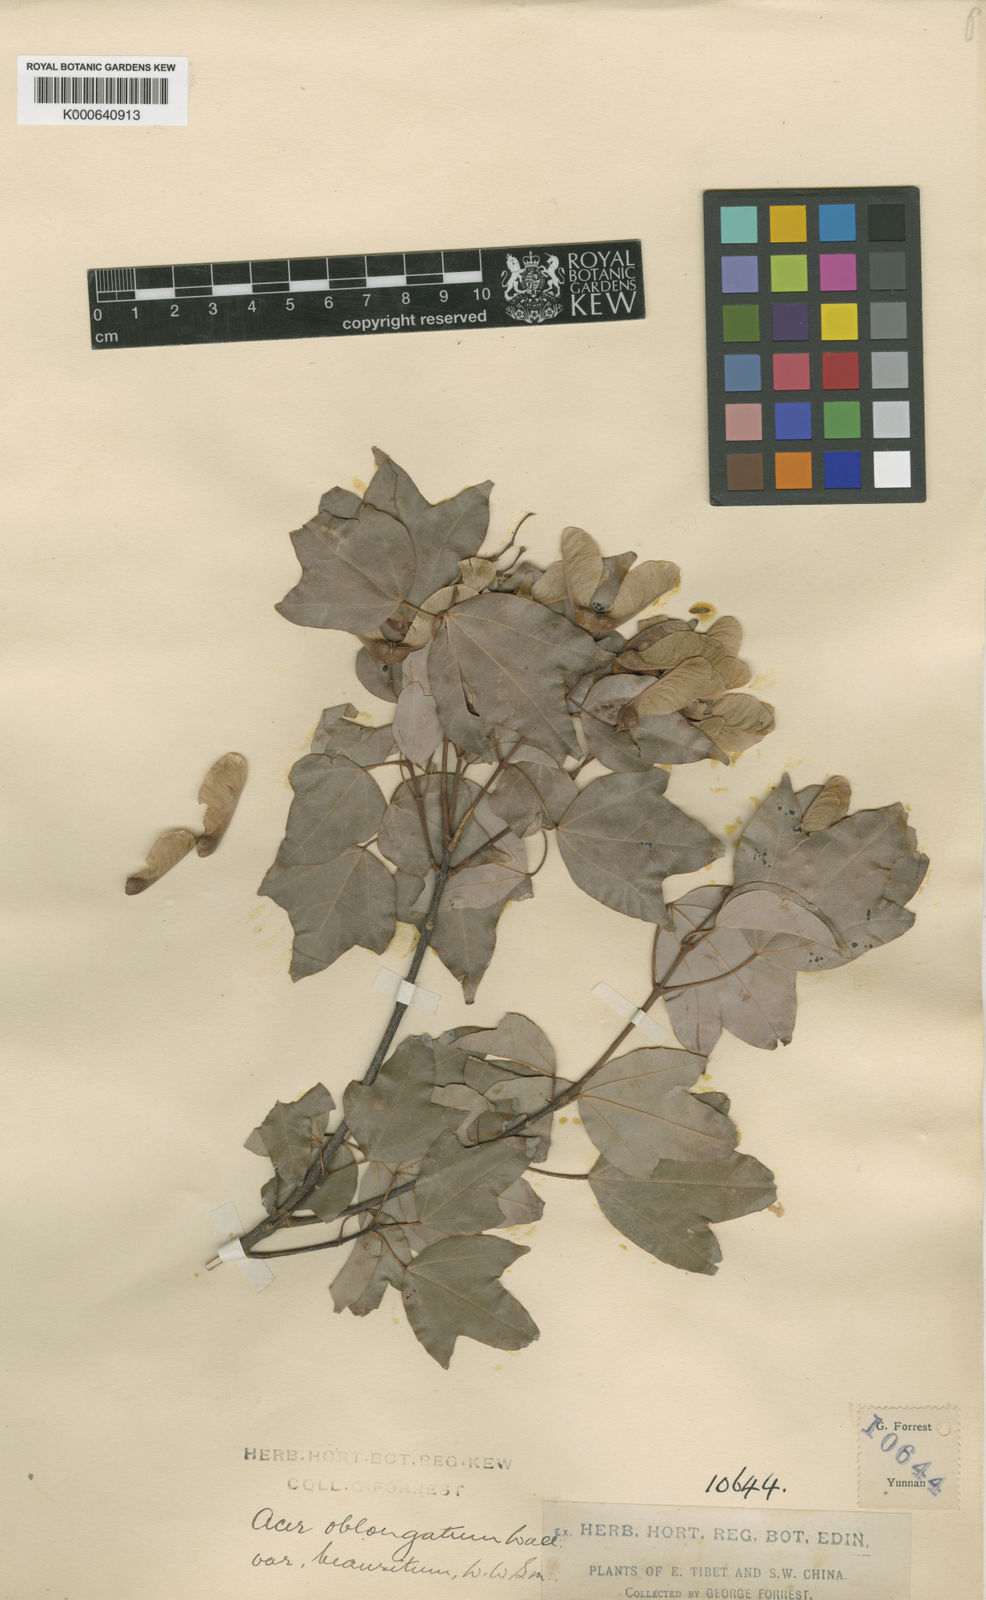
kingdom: Plantae
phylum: Tracheophyta
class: Magnoliopsida
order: Sapindales
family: Sapindaceae
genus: Acer
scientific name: Acer oblongum
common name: Himalayan maple
